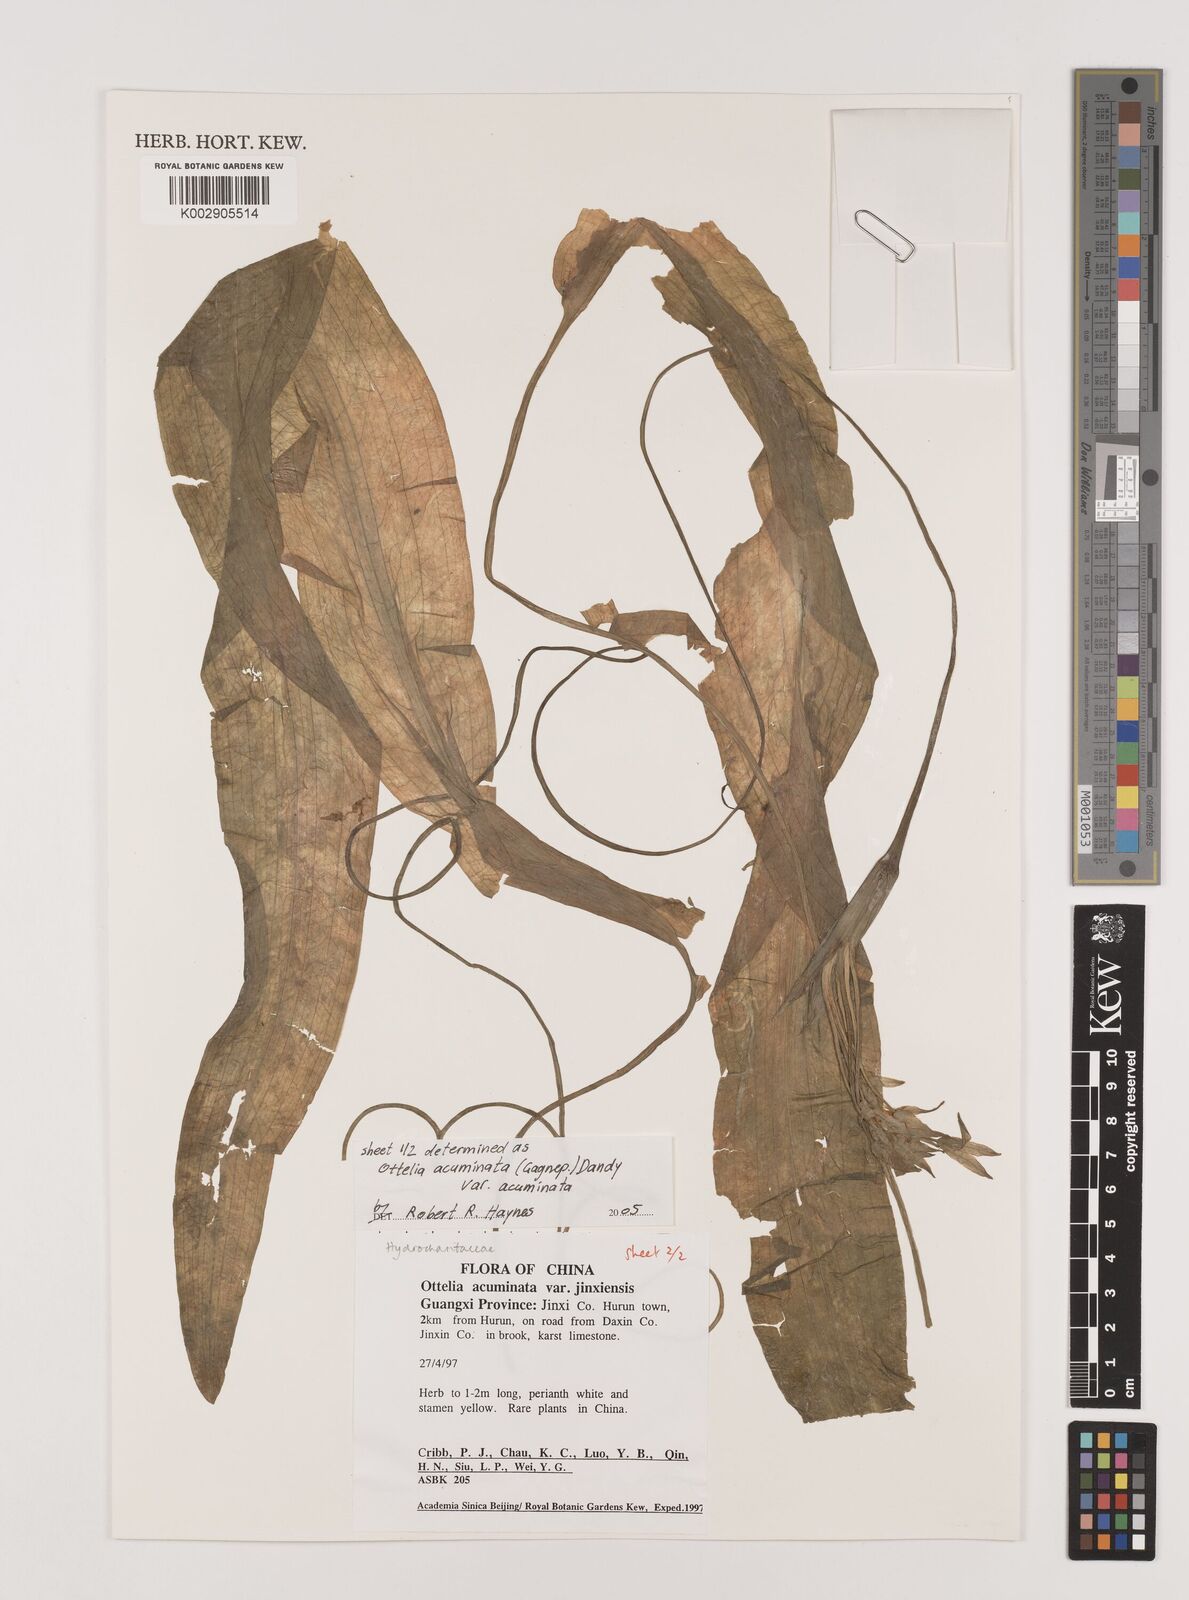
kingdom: Plantae
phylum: Tracheophyta
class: Liliopsida
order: Alismatales
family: Hydrocharitaceae
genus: Ottelia
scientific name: Ottelia acuminata
